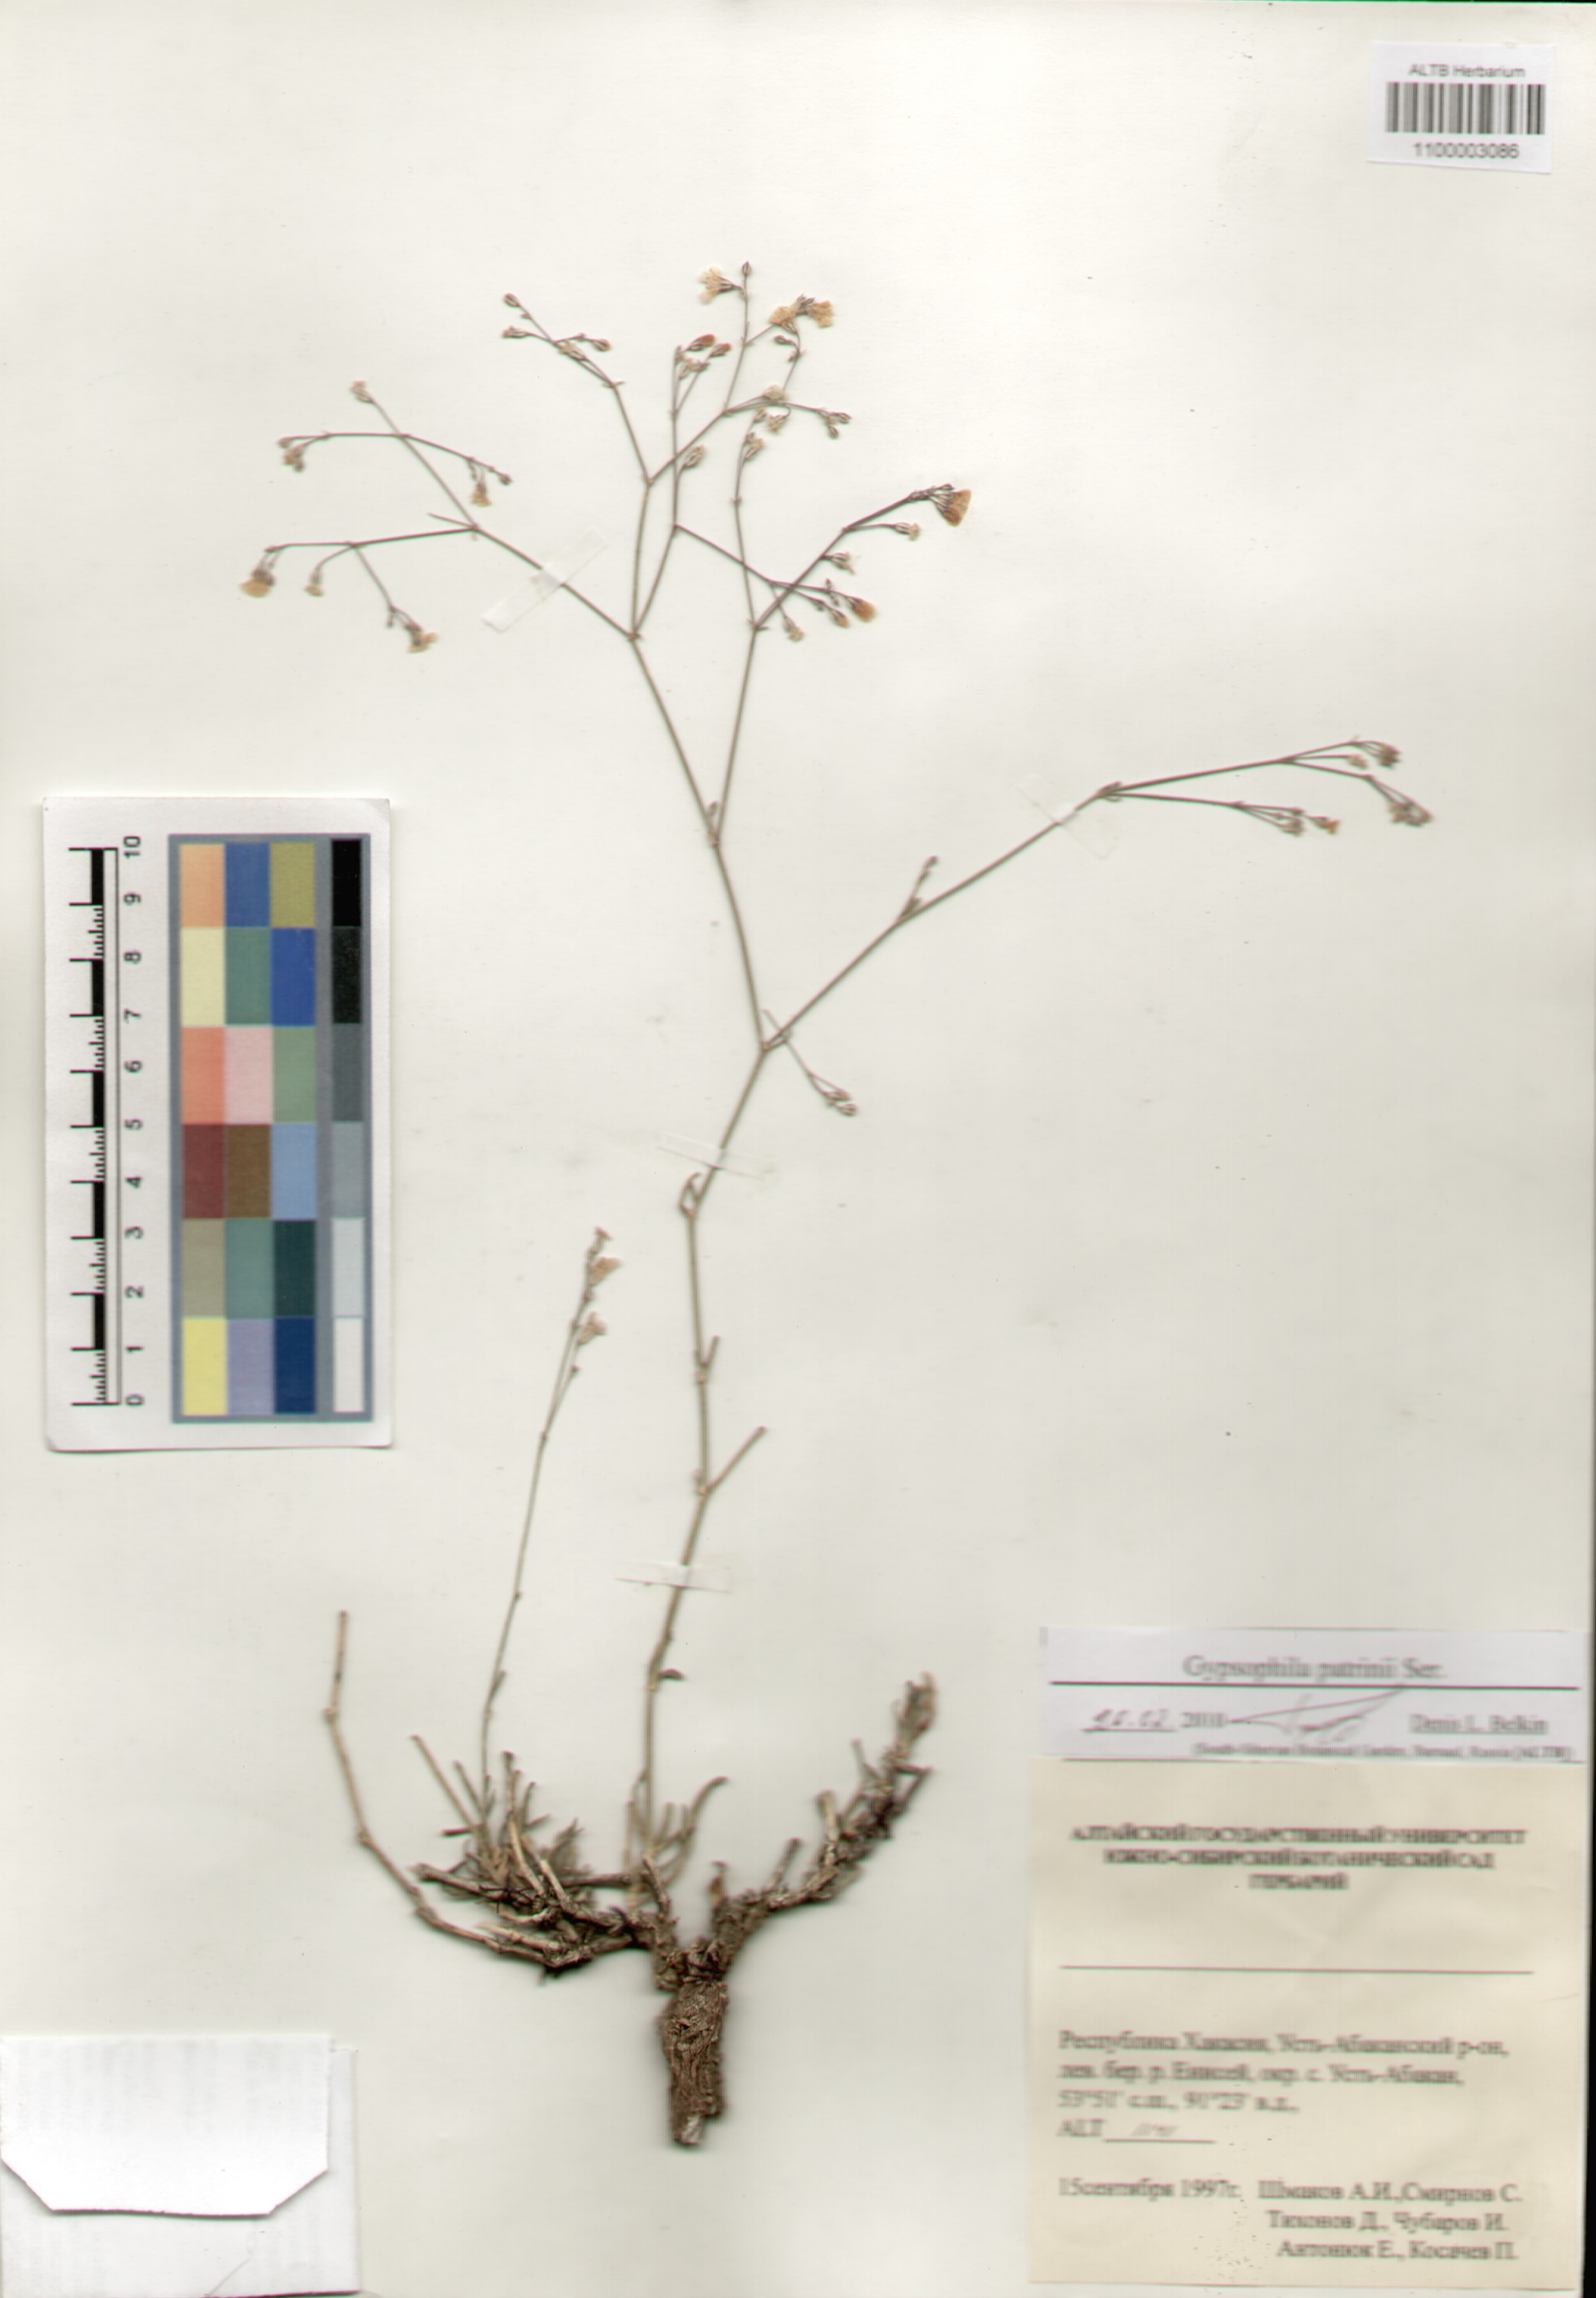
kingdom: Plantae
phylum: Tracheophyta
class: Magnoliopsida
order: Caryophyllales
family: Caryophyllaceae
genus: Gypsophila
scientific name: Gypsophila patrinii
